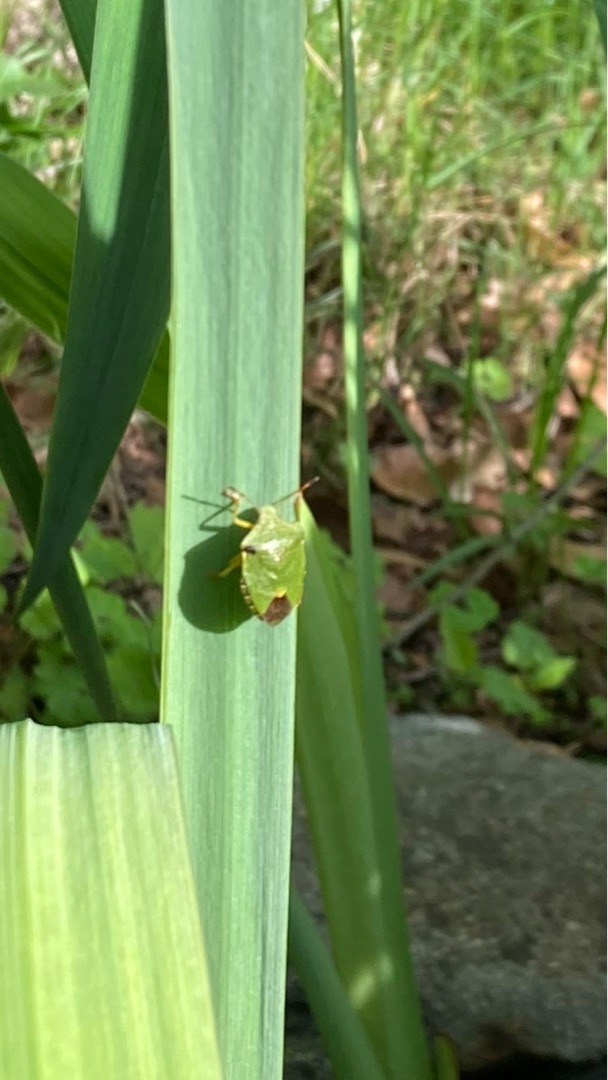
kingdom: Animalia
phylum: Arthropoda
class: Insecta
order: Hemiptera
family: Pentatomidae
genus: Palomena
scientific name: Palomena prasina
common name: Grøn bredtæge
